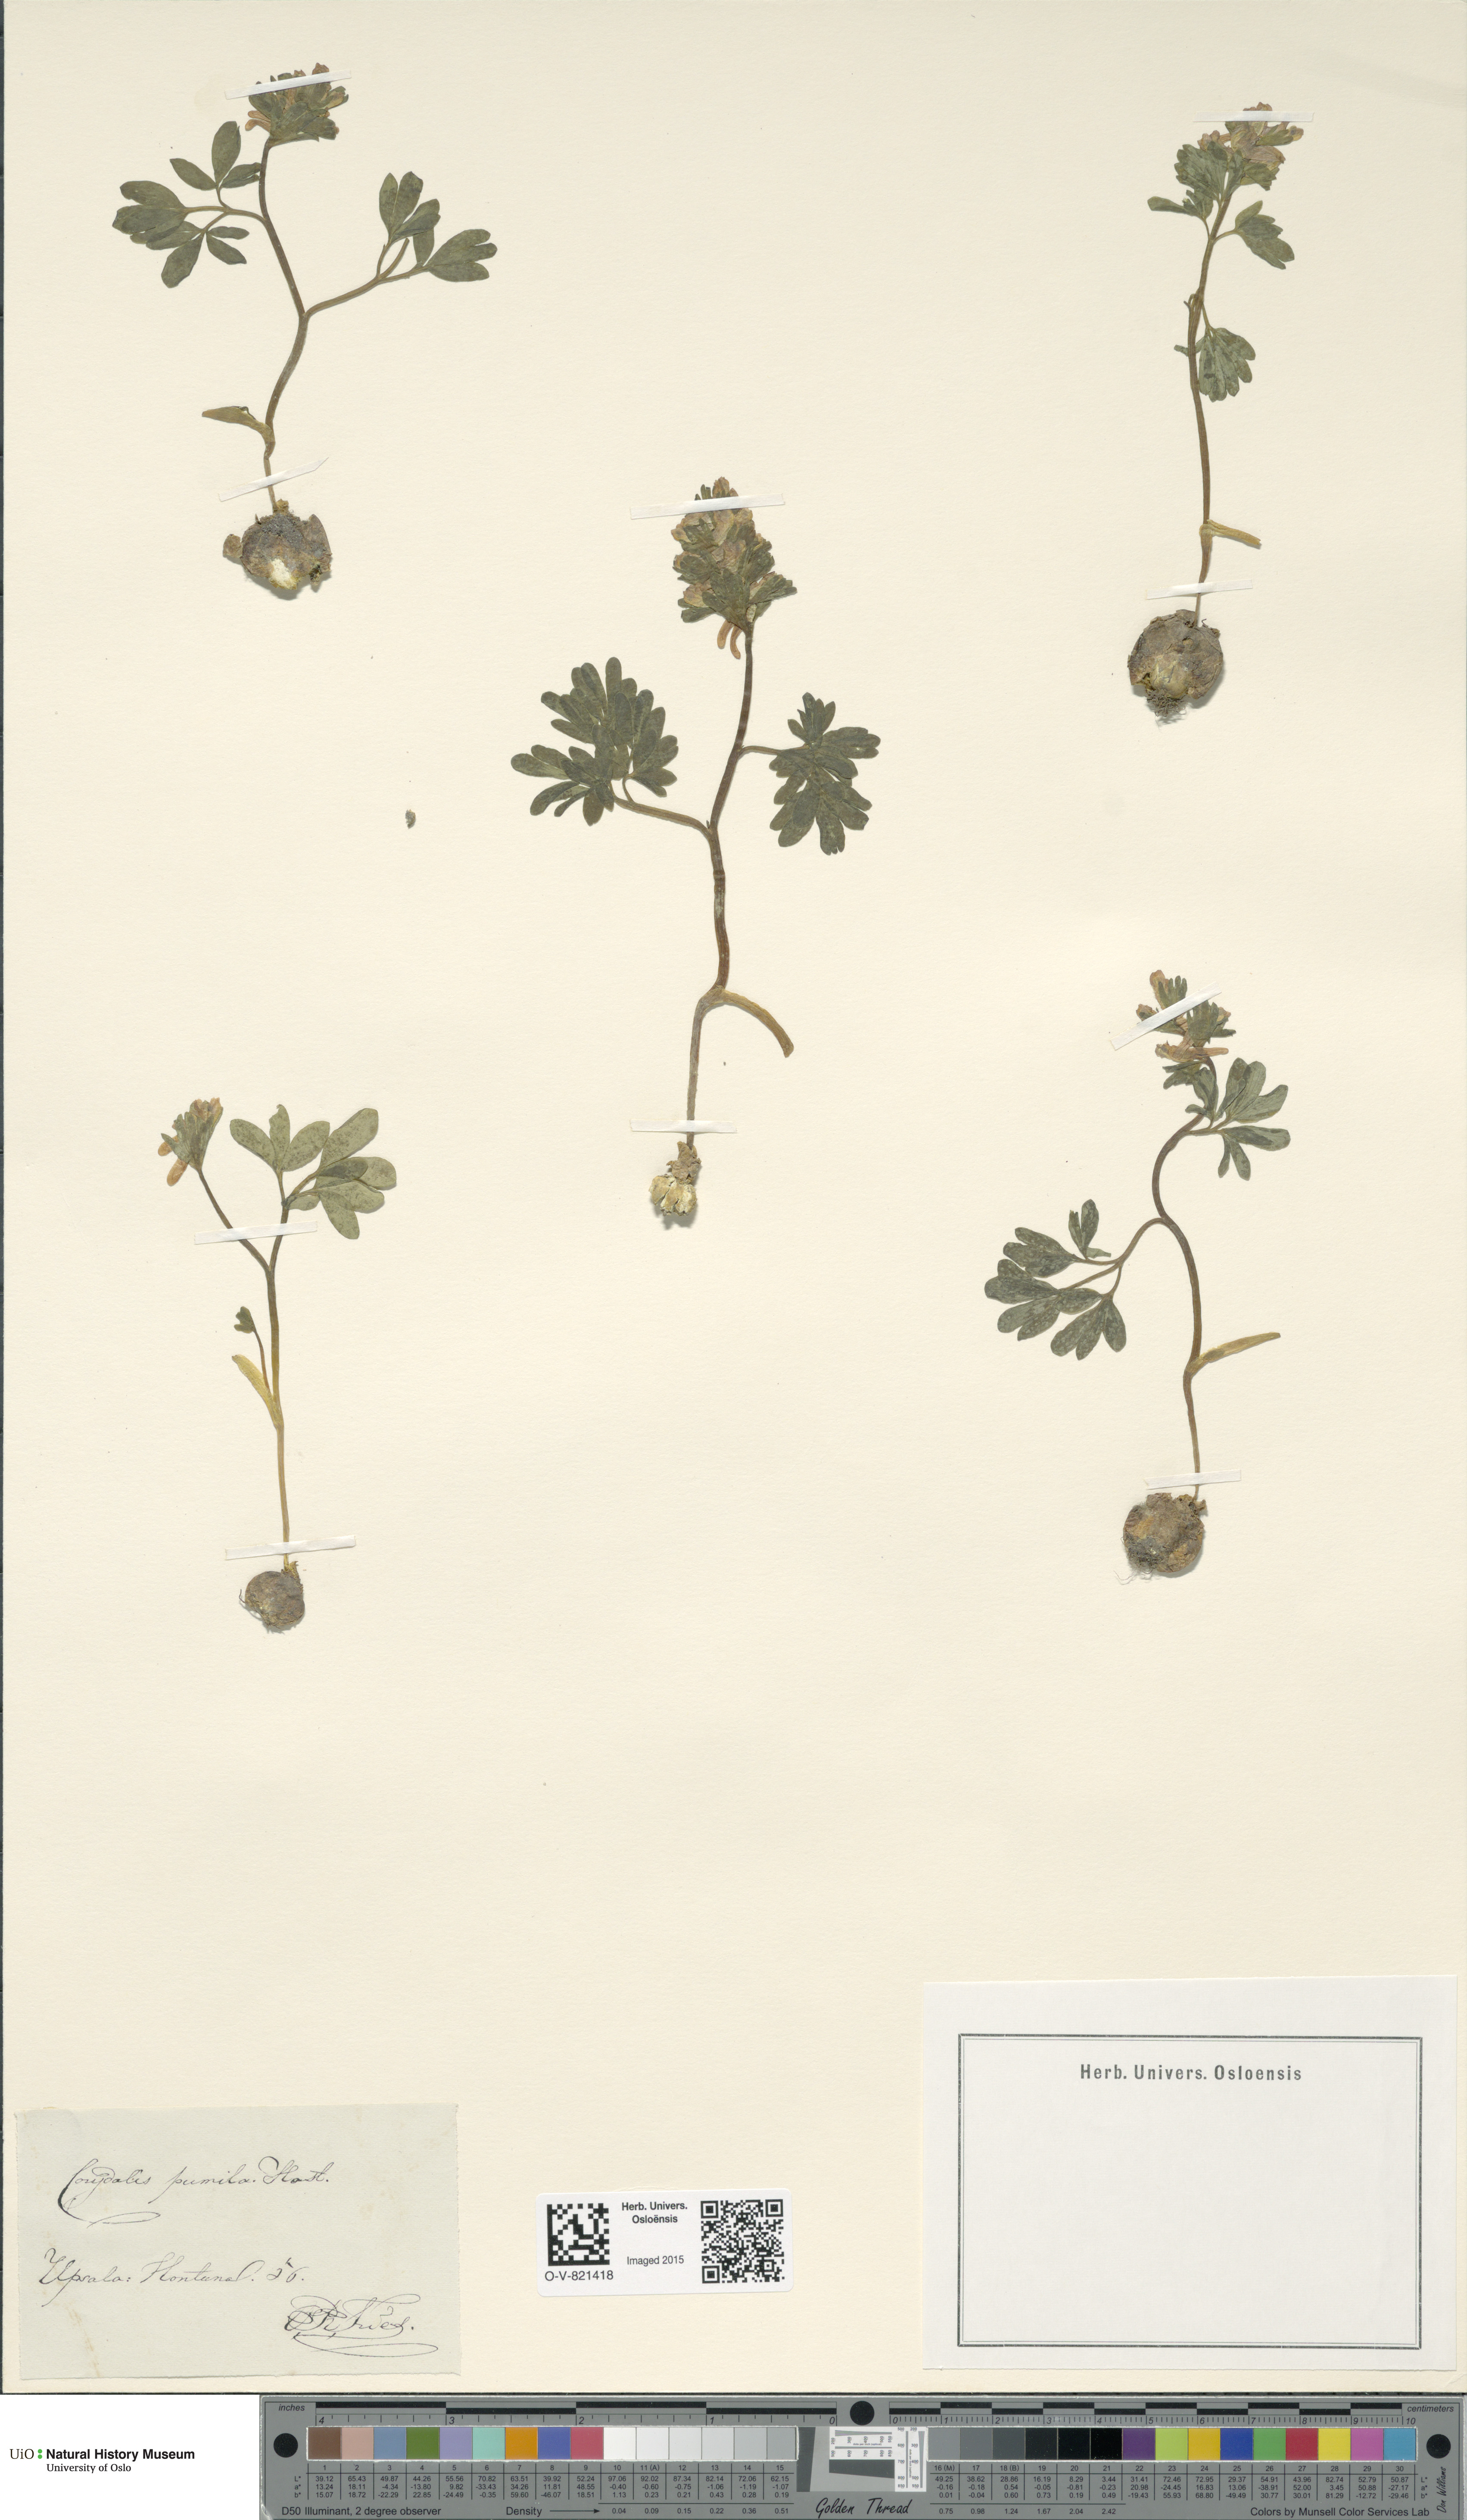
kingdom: Plantae
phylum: Tracheophyta
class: Magnoliopsida
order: Ranunculales
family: Papaveraceae
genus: Corydalis
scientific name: Corydalis pumila
